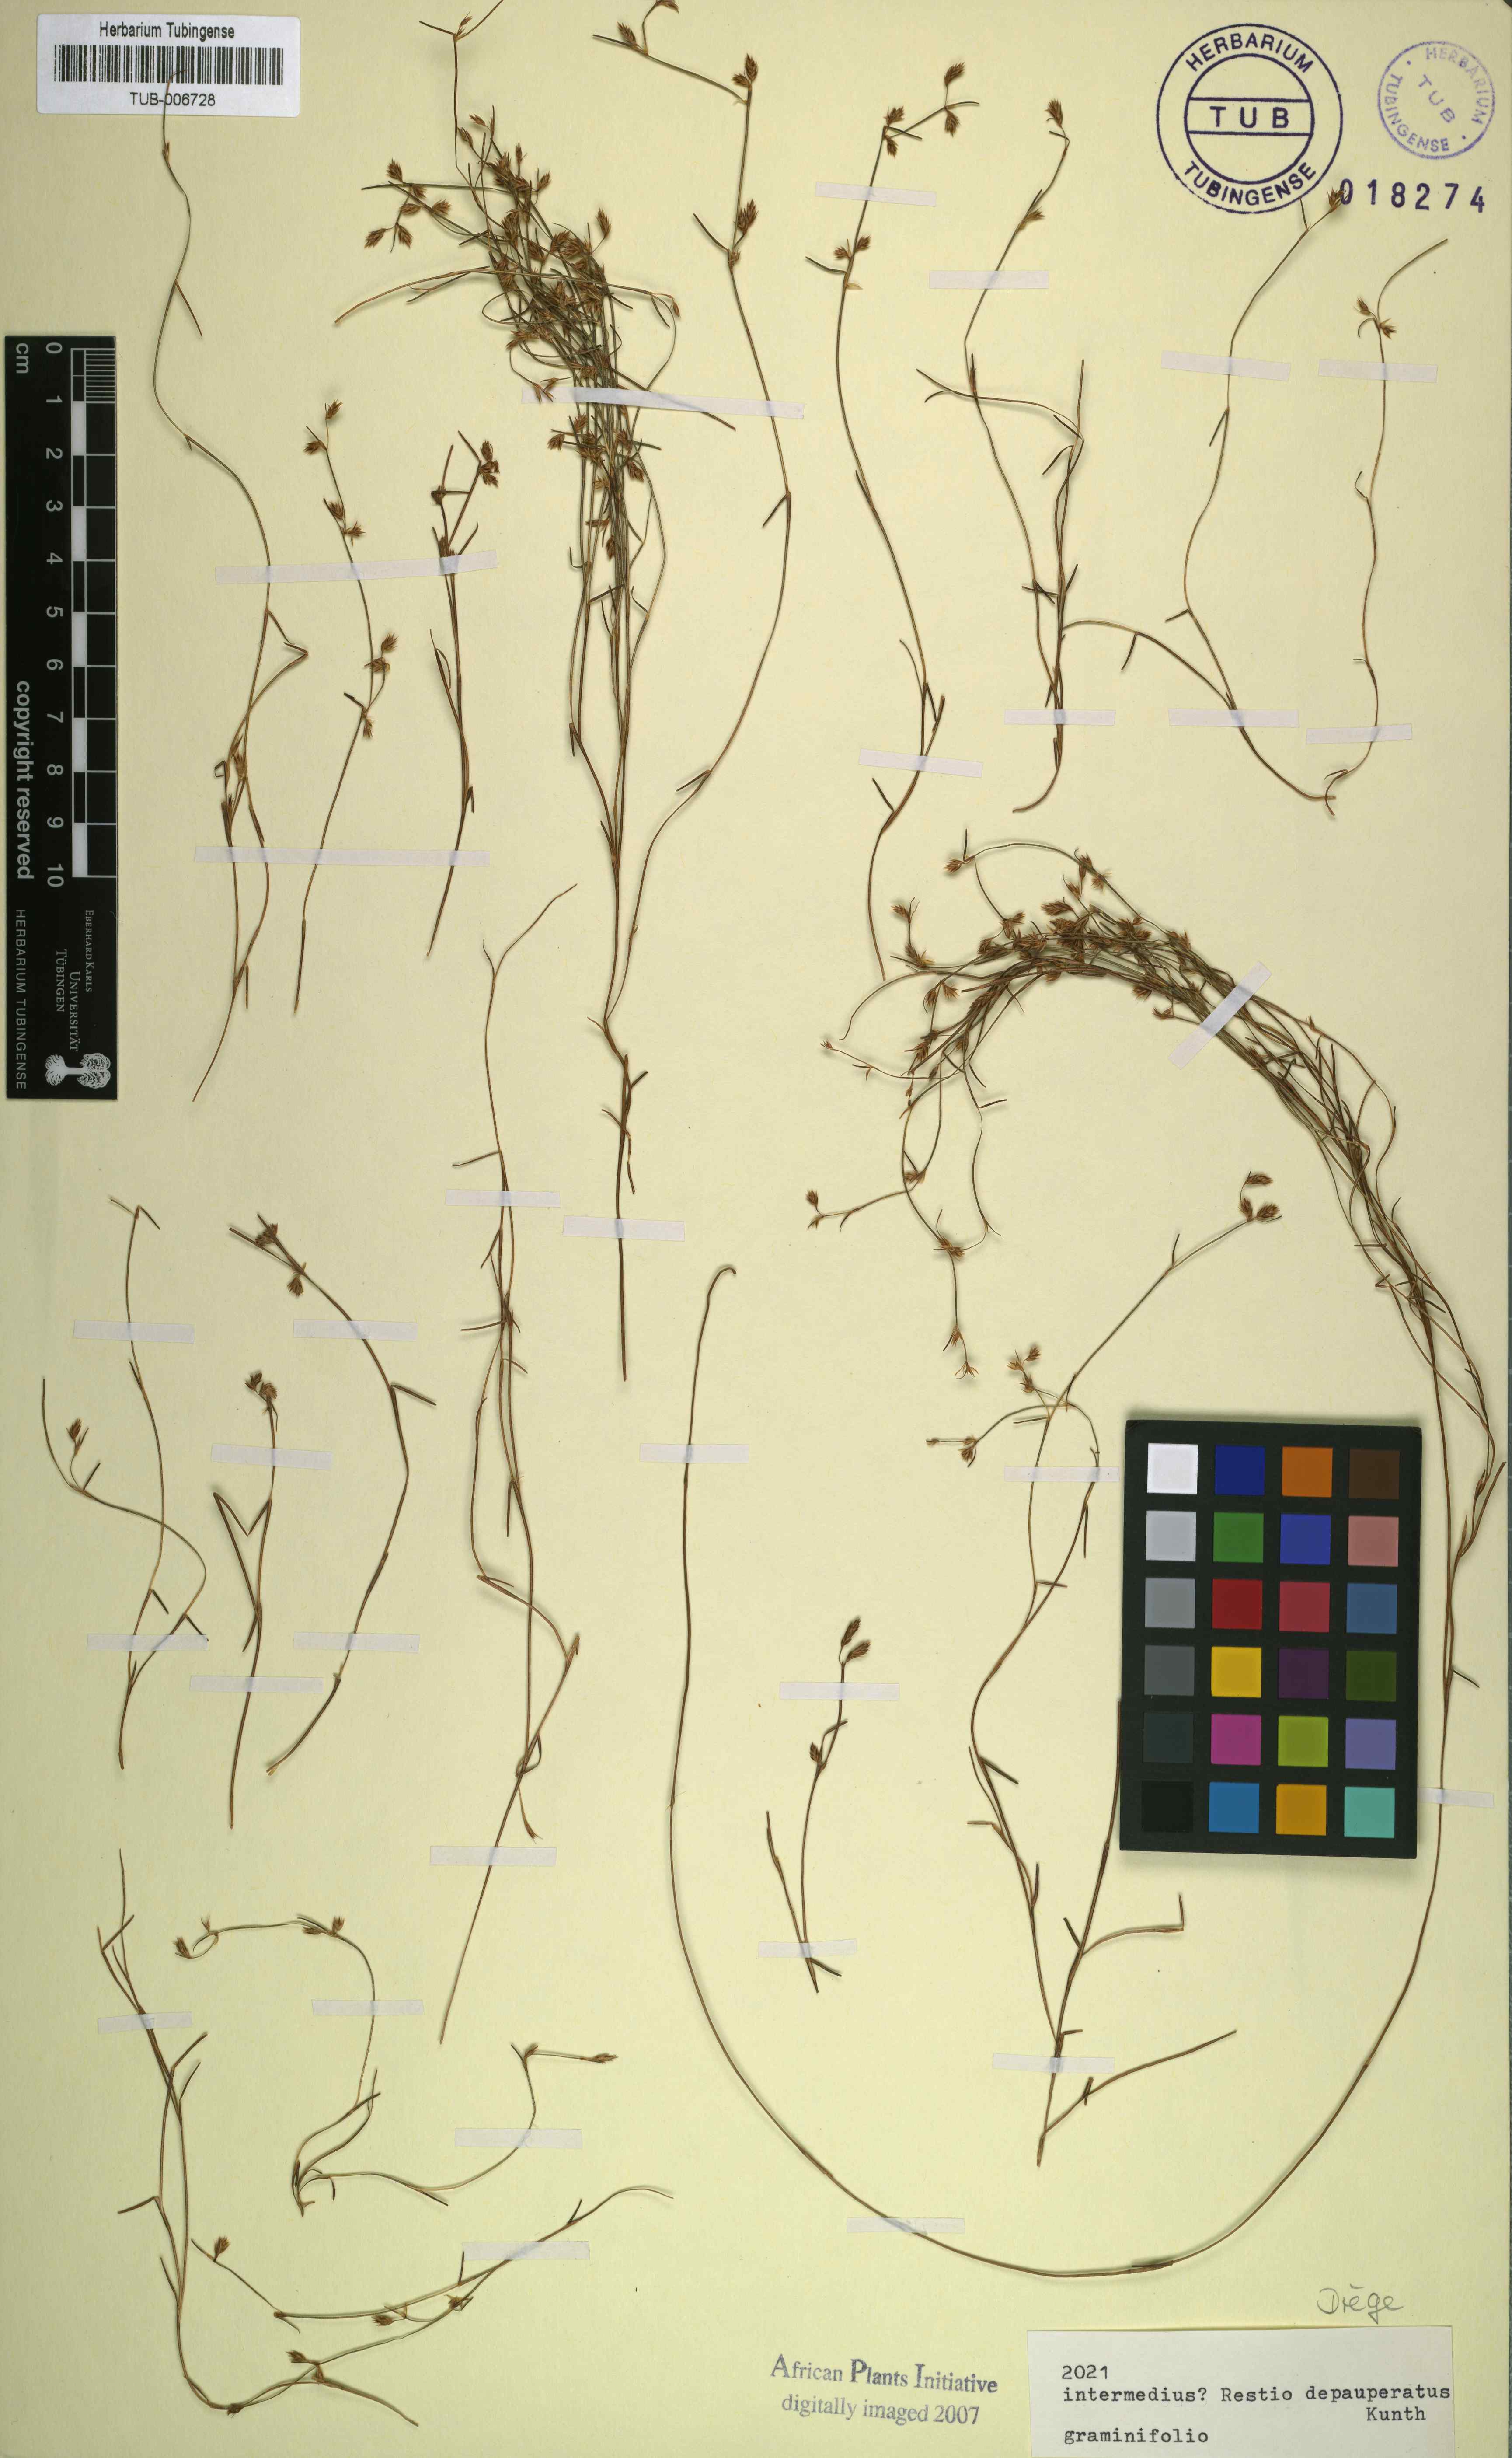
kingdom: Plantae
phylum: Tracheophyta
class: Liliopsida
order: Poales
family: Restionaceae
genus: Anthochortus
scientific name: Anthochortus graminifolius
